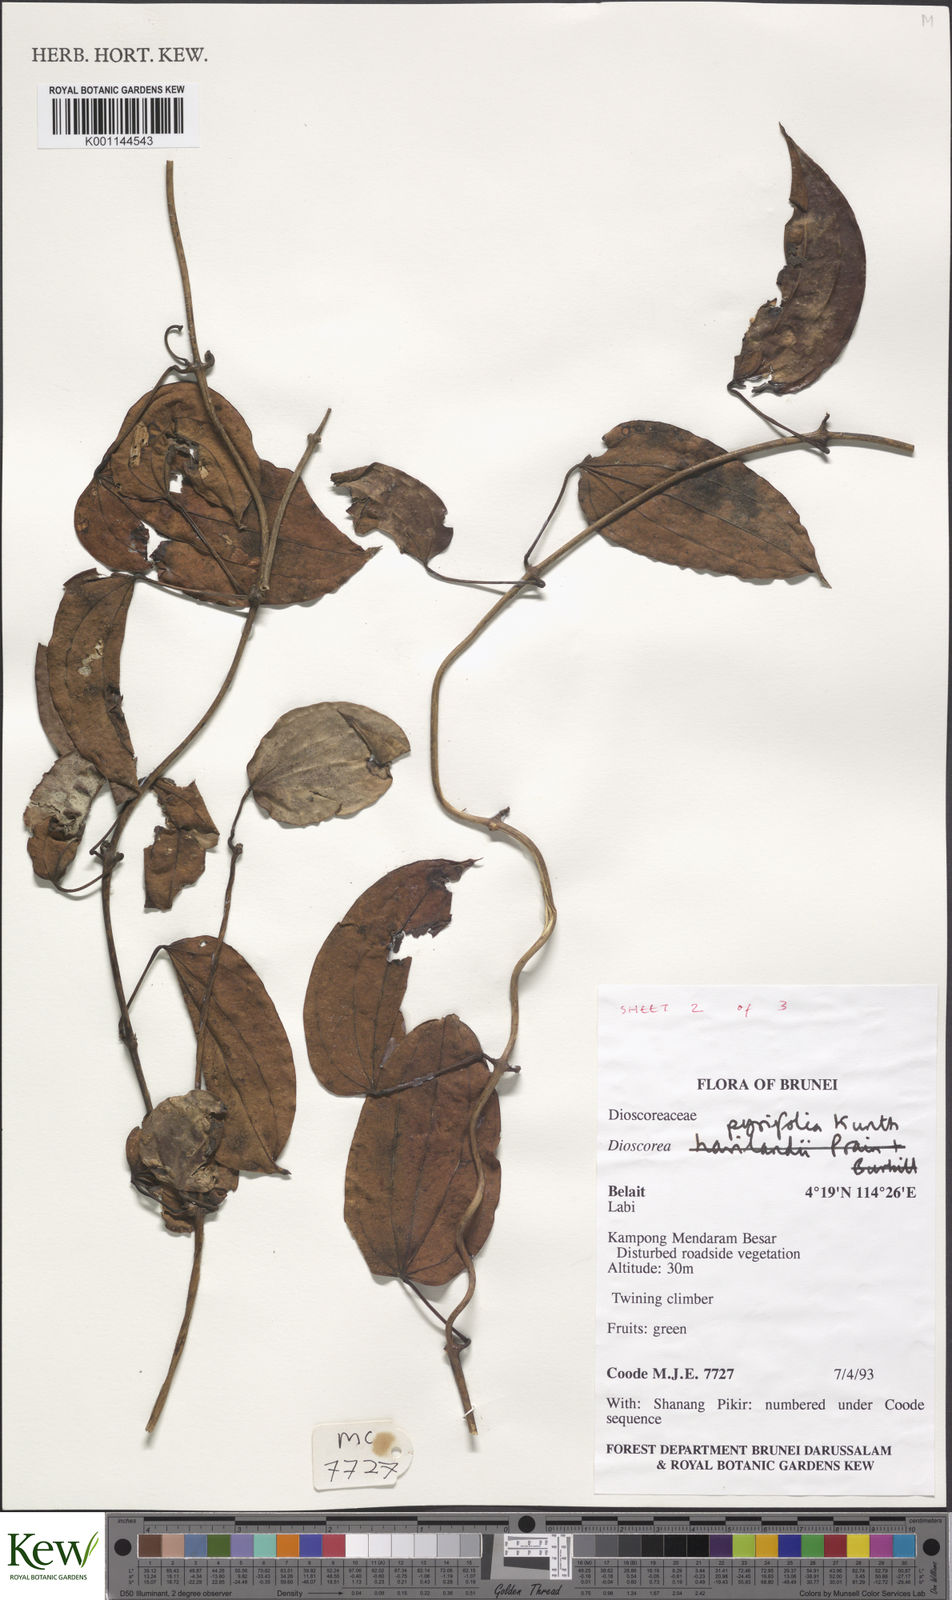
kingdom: Plantae
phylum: Tracheophyta
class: Liliopsida
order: Dioscoreales
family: Dioscoreaceae
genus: Dioscorea
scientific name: Dioscorea pyrifolia
